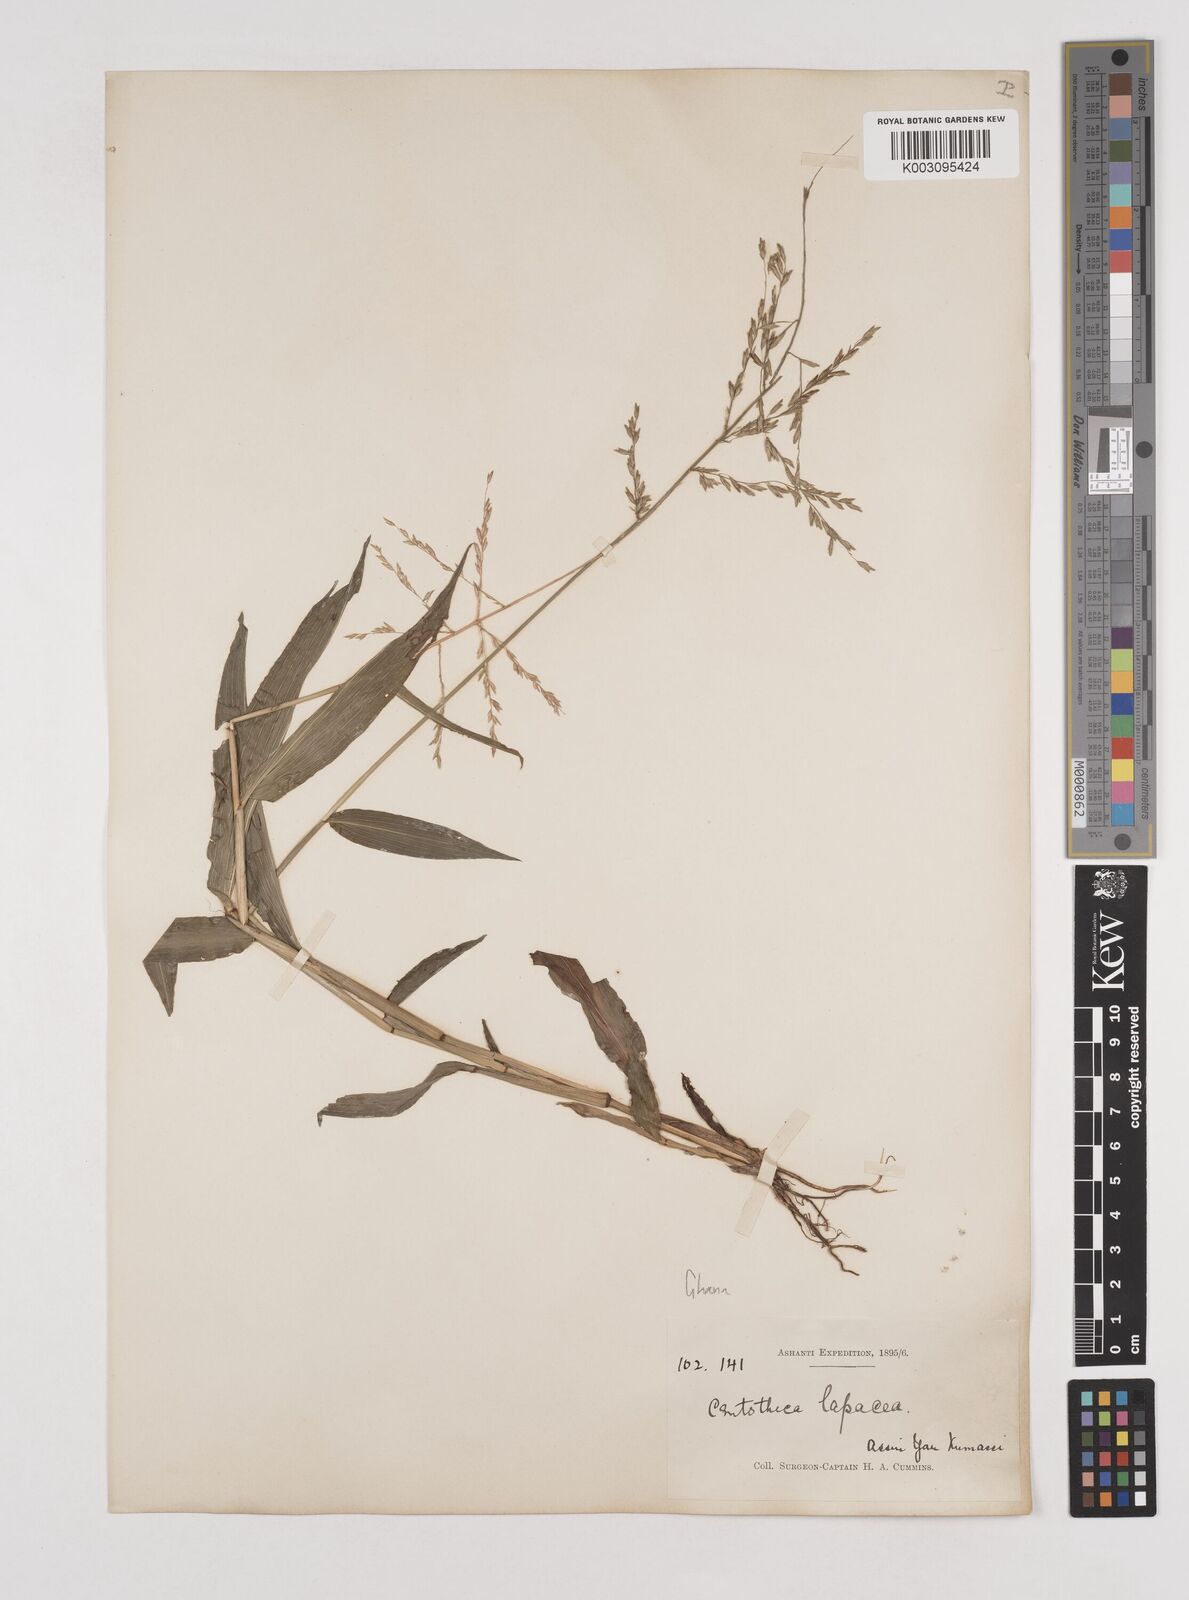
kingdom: Plantae
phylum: Tracheophyta
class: Liliopsida
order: Poales
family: Poaceae
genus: Centotheca
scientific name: Centotheca lappacea
